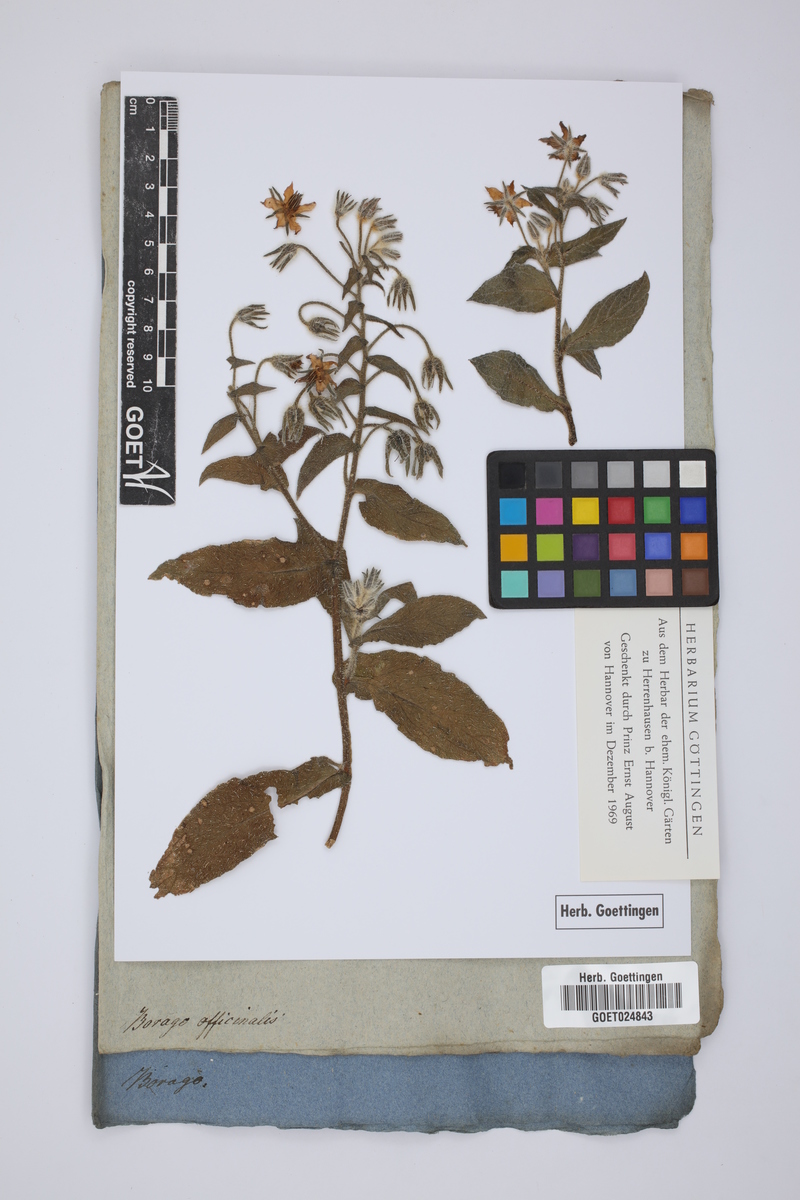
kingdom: Plantae
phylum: Tracheophyta
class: Magnoliopsida
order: Boraginales
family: Boraginaceae
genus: Borago
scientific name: Borago officinalis
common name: Borage
